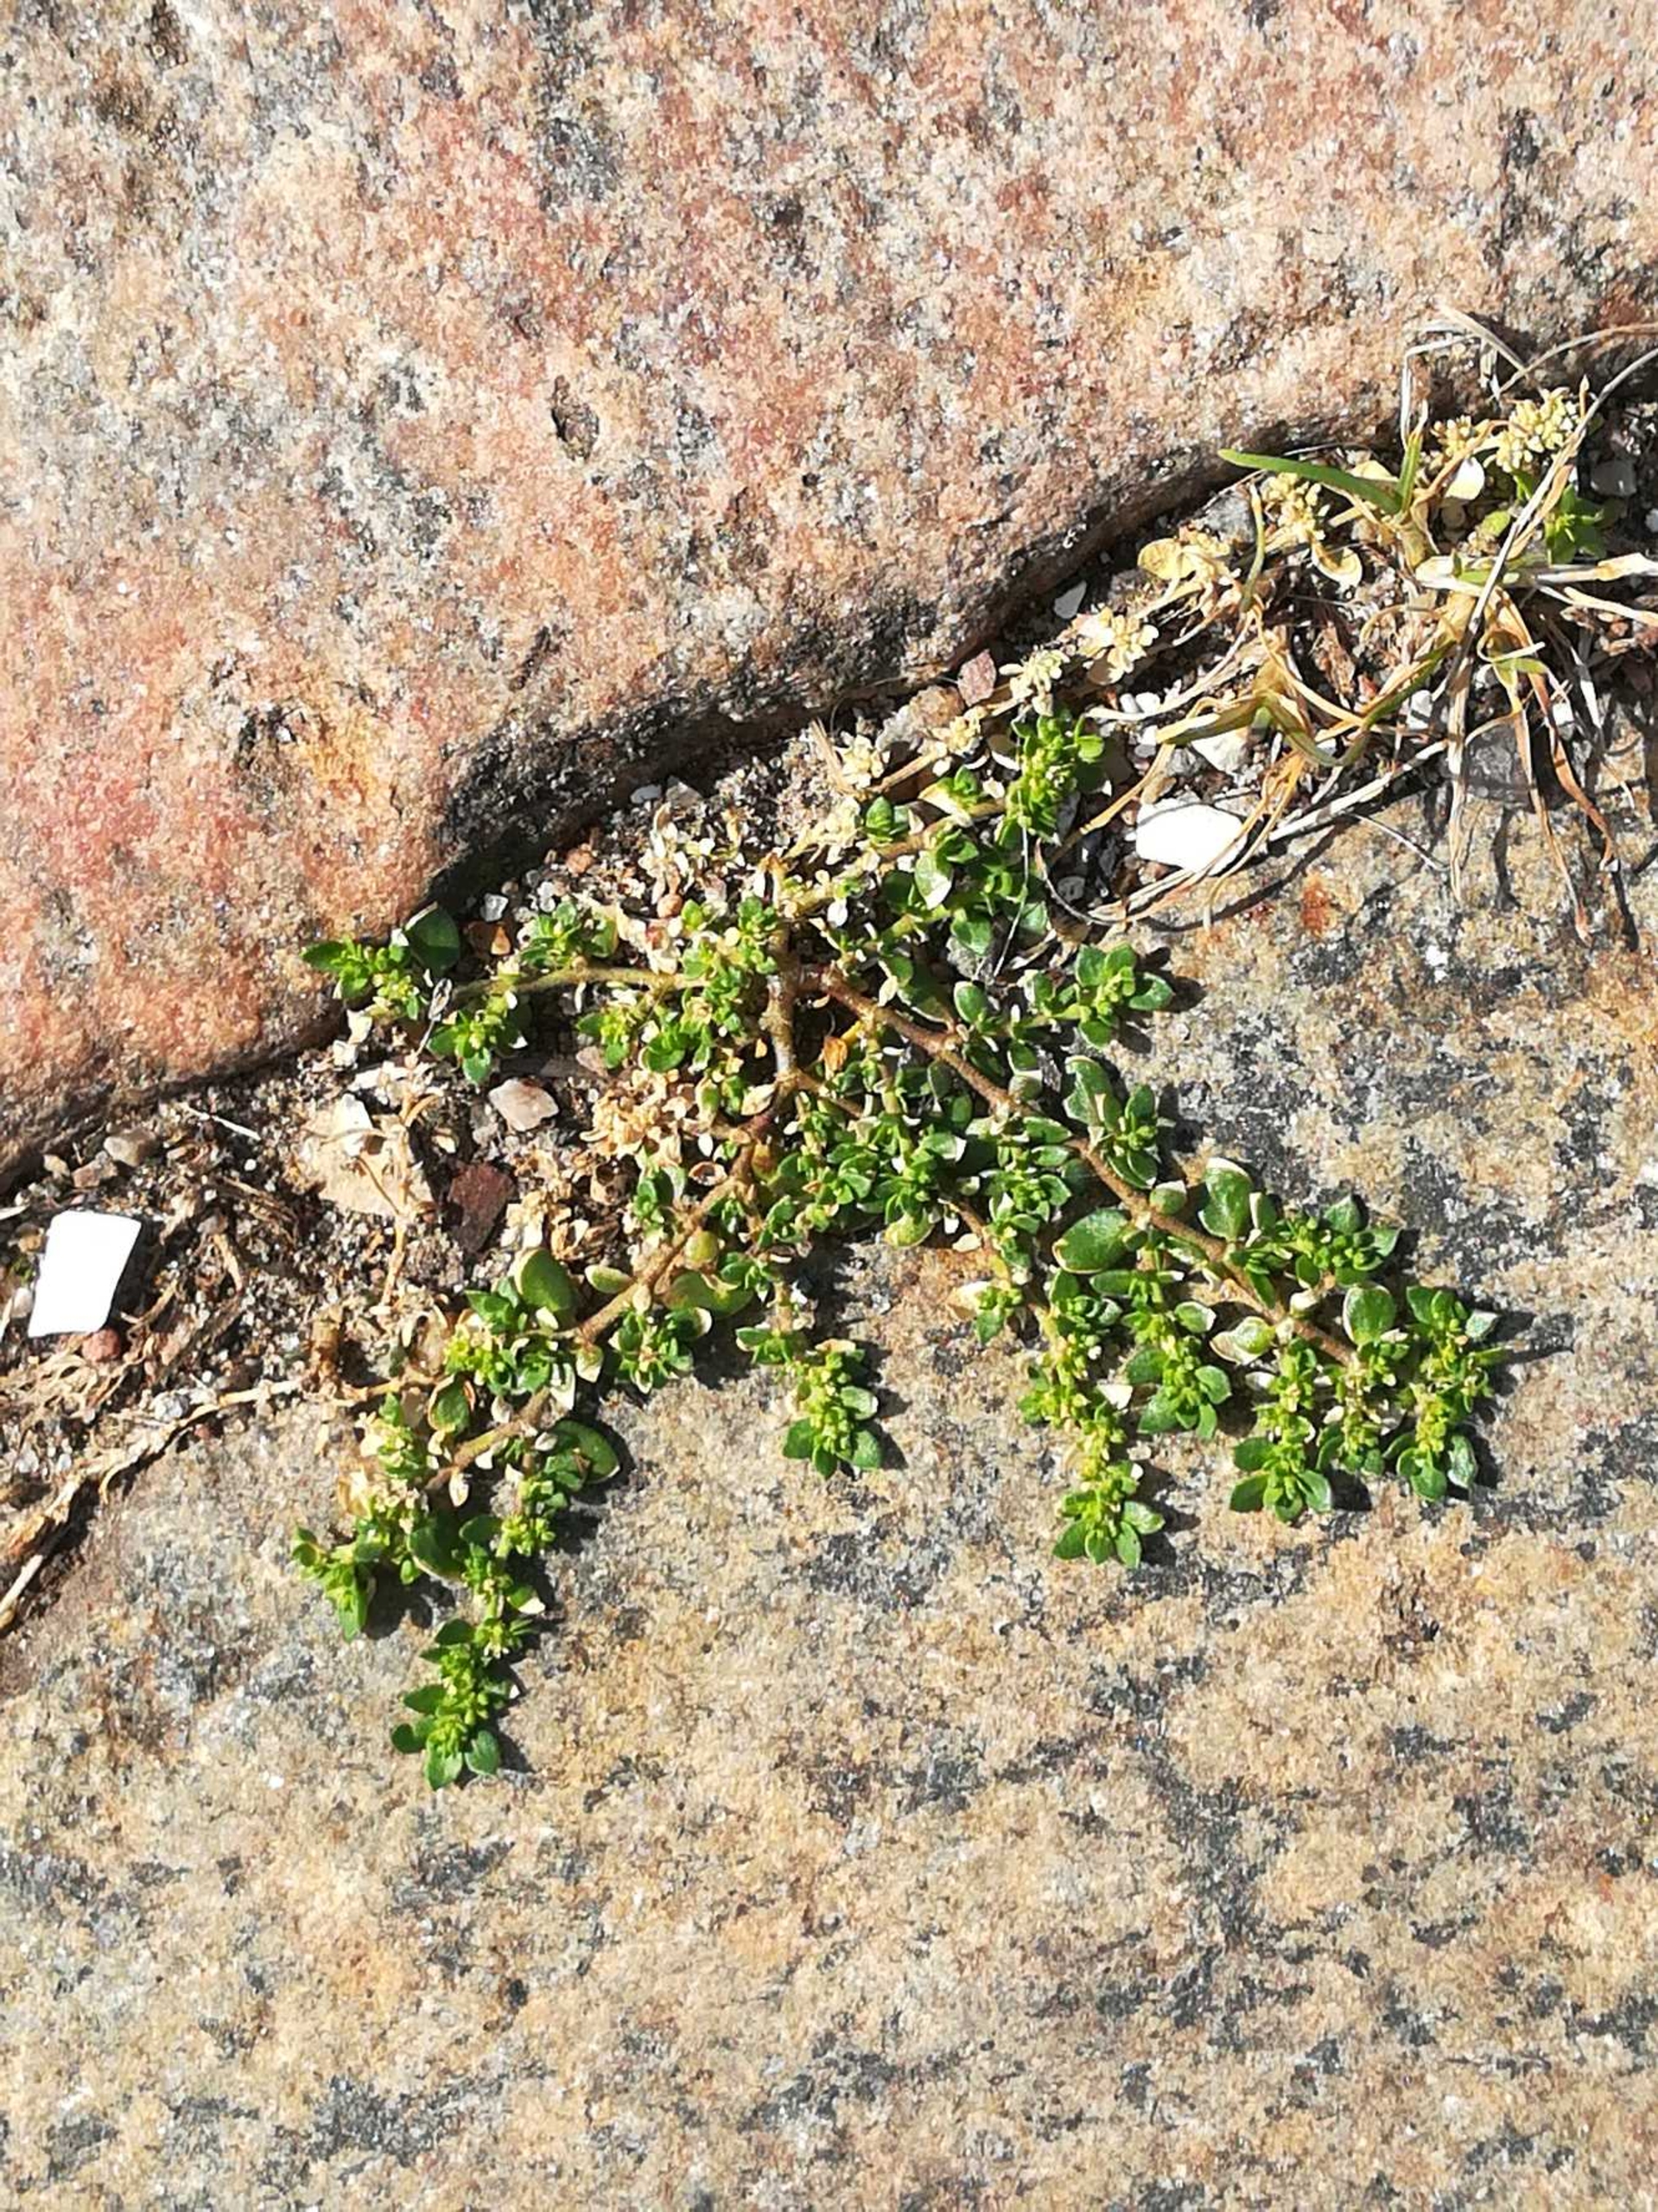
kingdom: Plantae
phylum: Tracheophyta
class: Magnoliopsida
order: Caryophyllales
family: Caryophyllaceae
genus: Herniaria
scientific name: Herniaria glabra
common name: Brudurt
